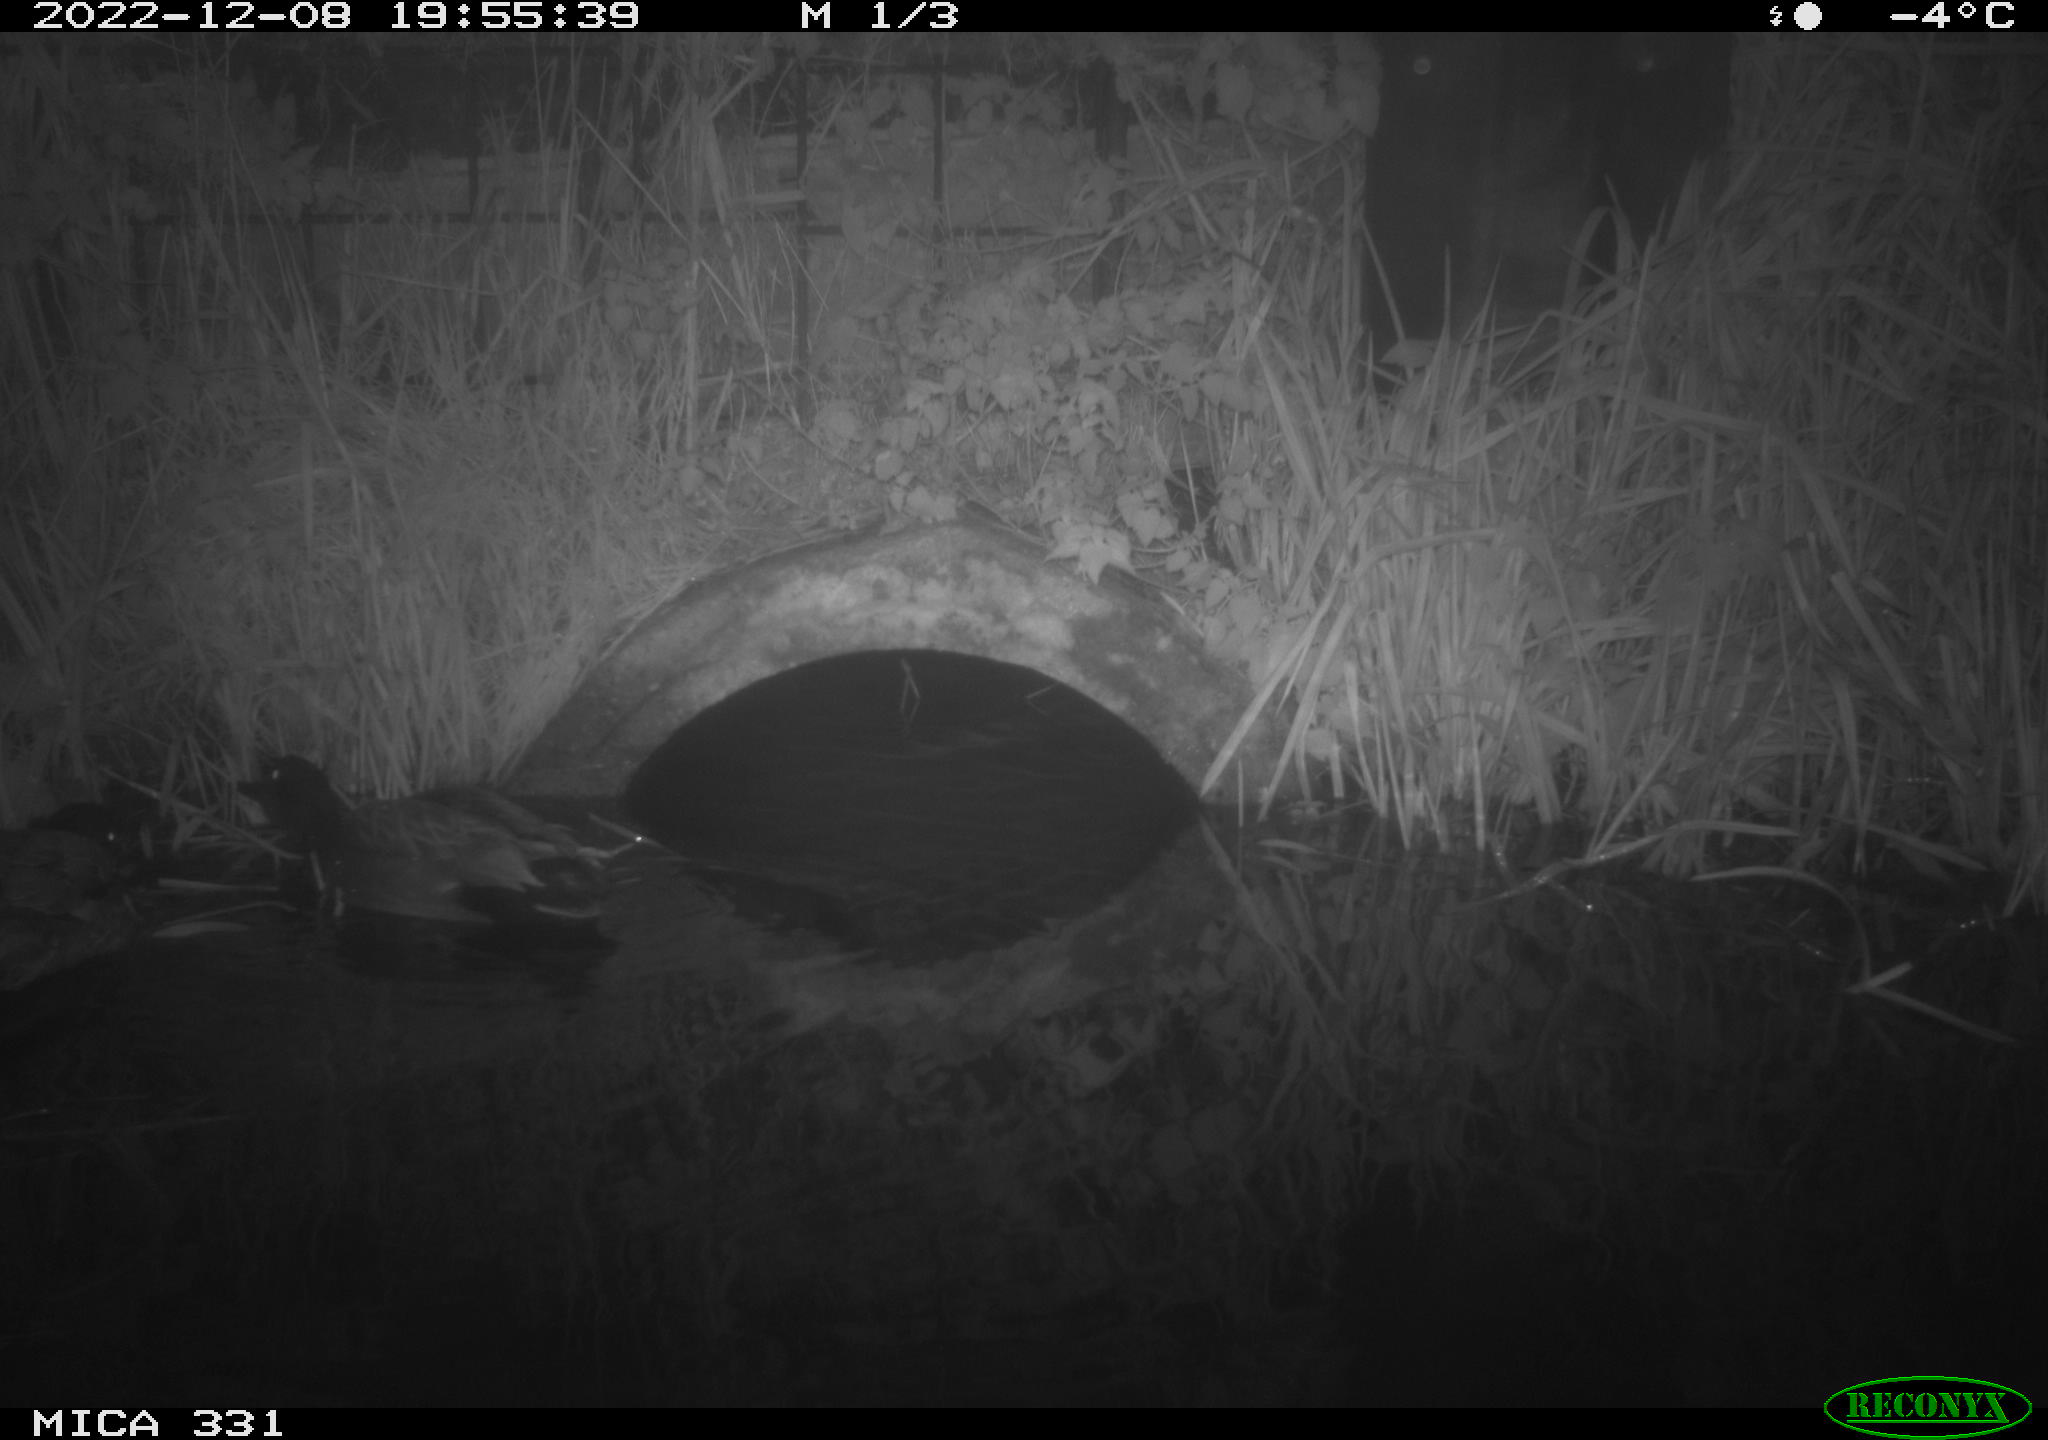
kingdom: Animalia
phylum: Chordata
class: Aves
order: Anseriformes
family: Anatidae
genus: Anas
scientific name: Anas platyrhynchos
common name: Mallard
